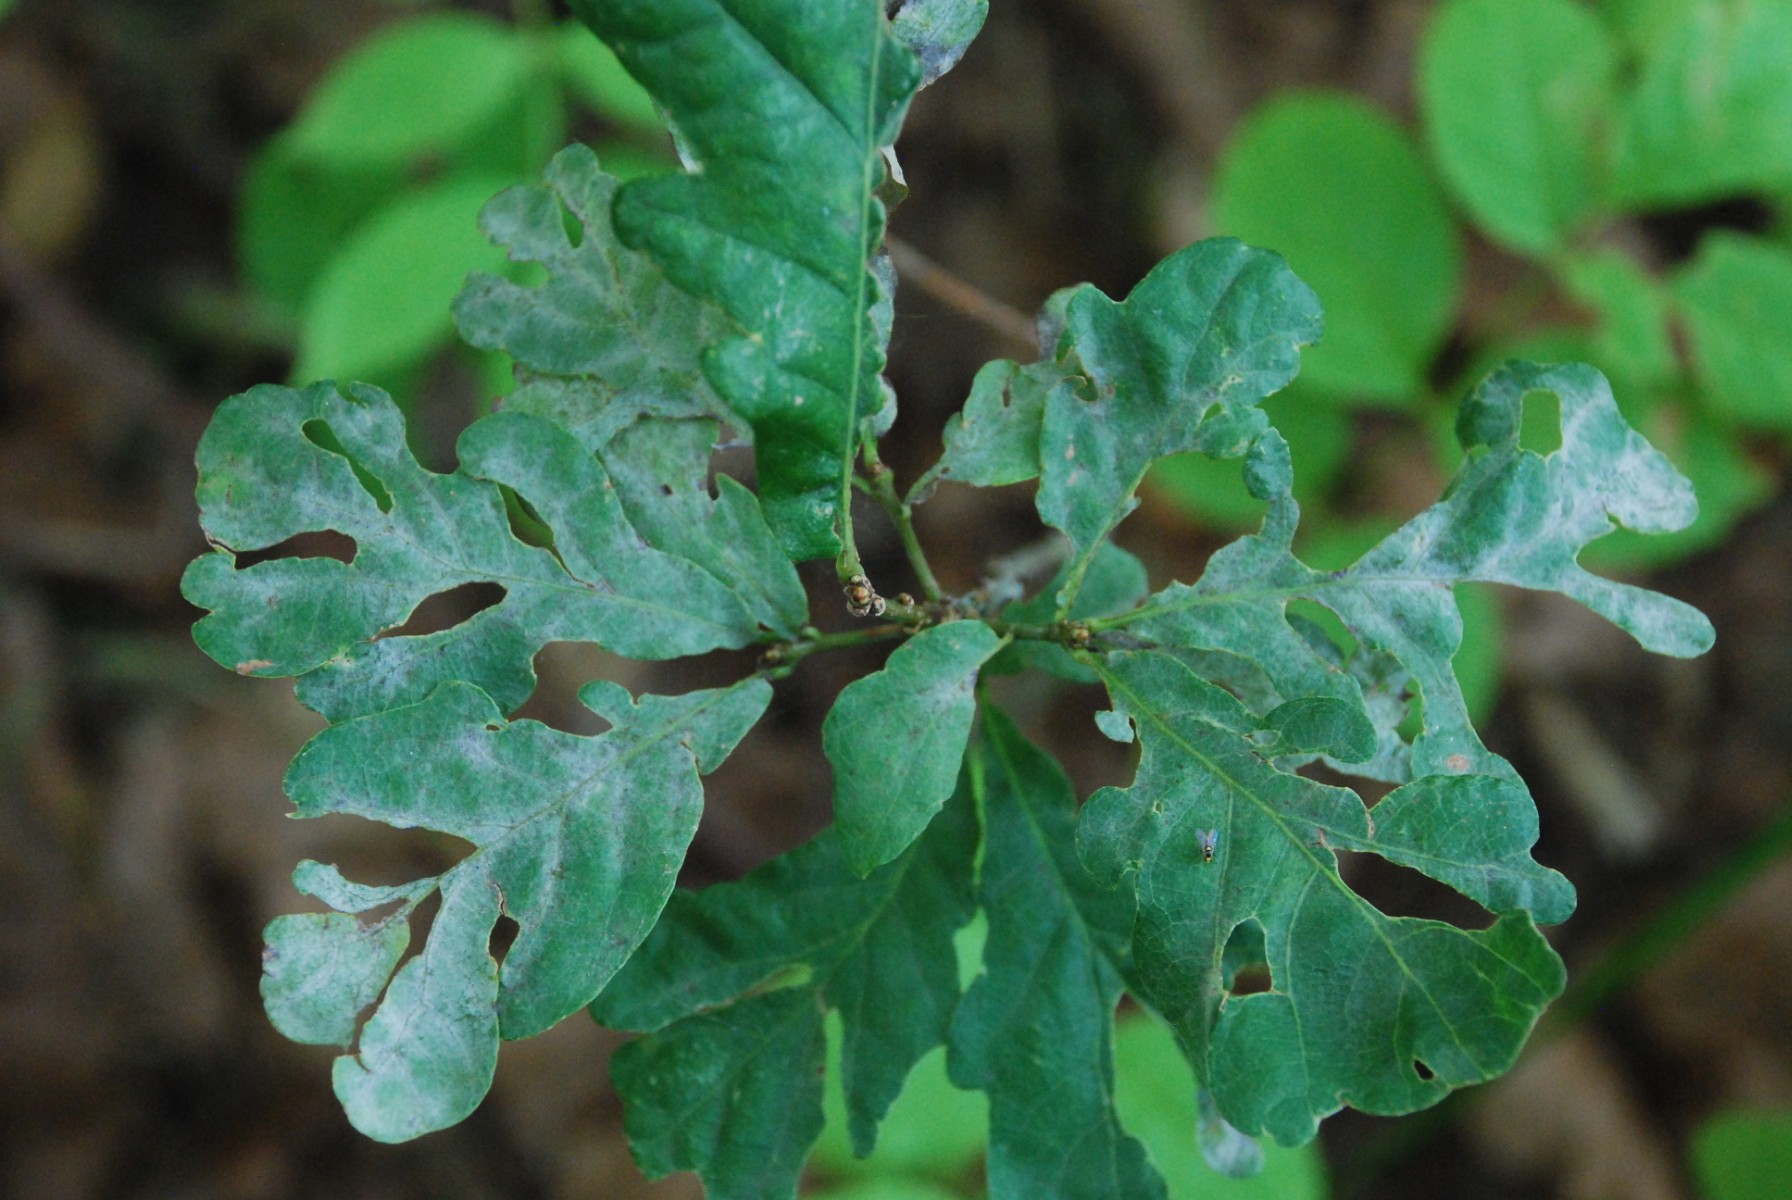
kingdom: Fungi
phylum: Ascomycota
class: Leotiomycetes
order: Helotiales
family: Erysiphaceae
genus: Erysiphe
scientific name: Erysiphe alphitoides
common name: ege-meldug
